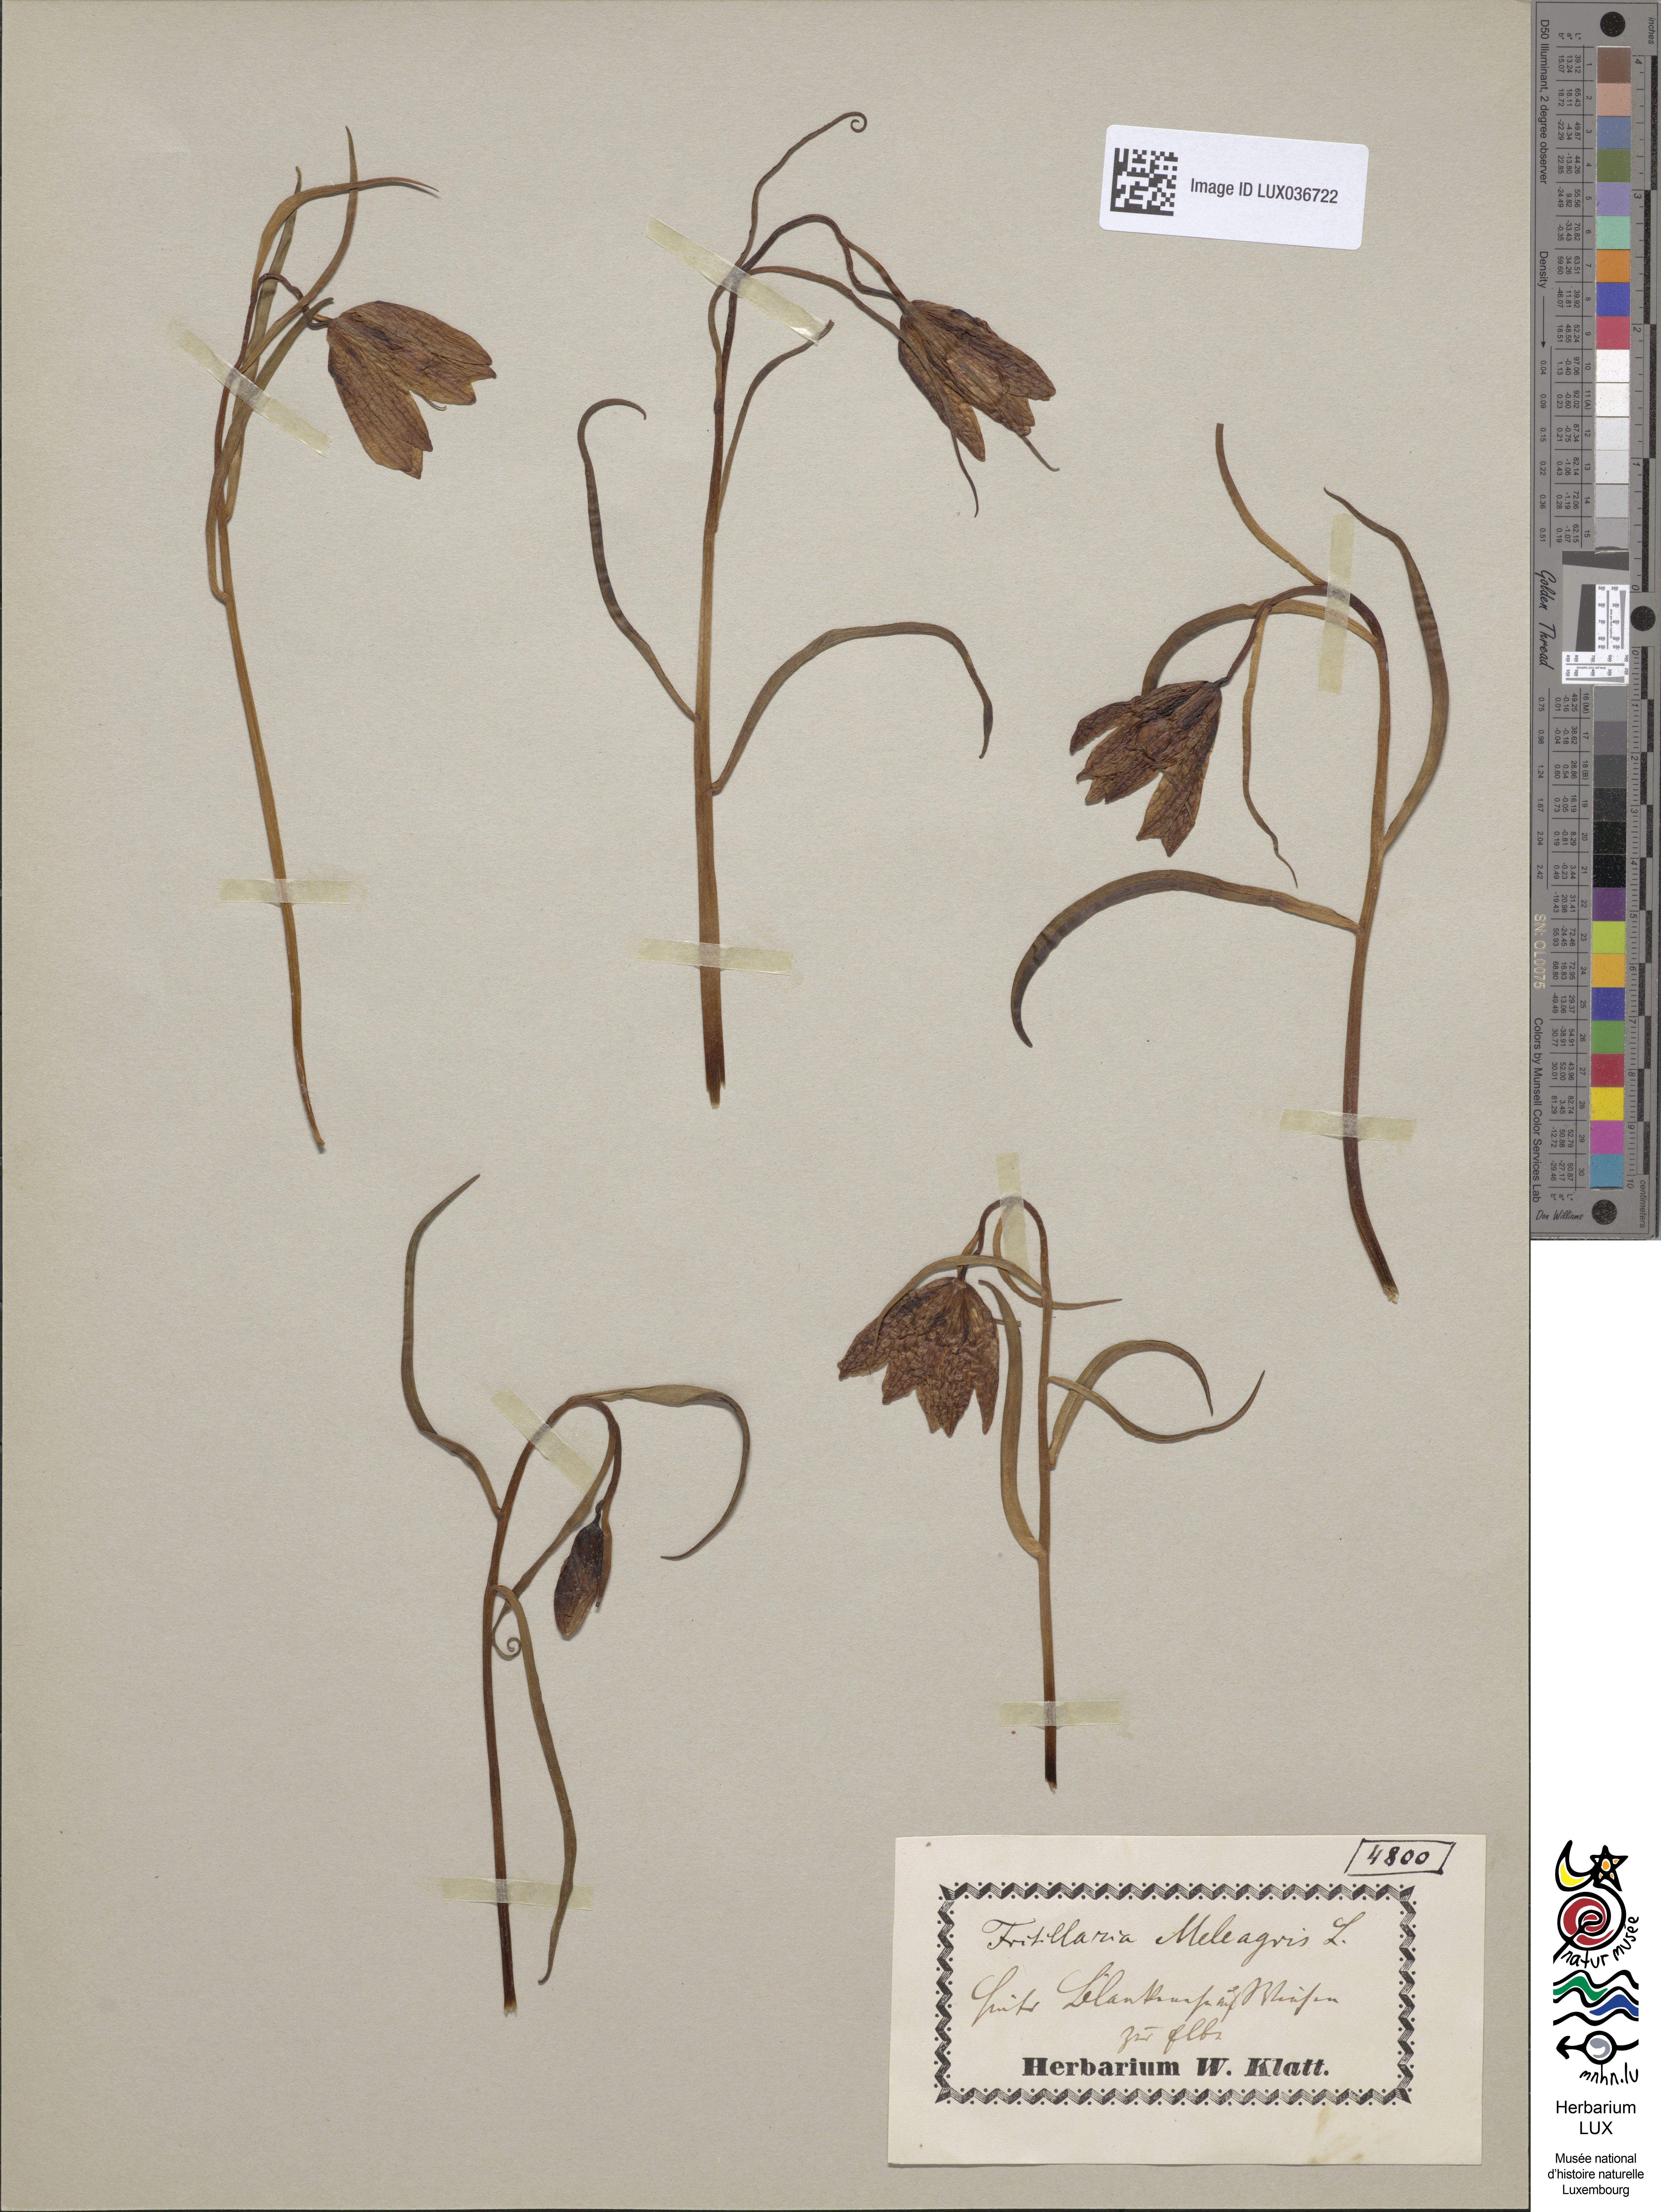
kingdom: Plantae
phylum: Tracheophyta
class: Liliopsida
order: Liliales
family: Liliaceae
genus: Fritillaria
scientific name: Fritillaria meleagris
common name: Fritillary
